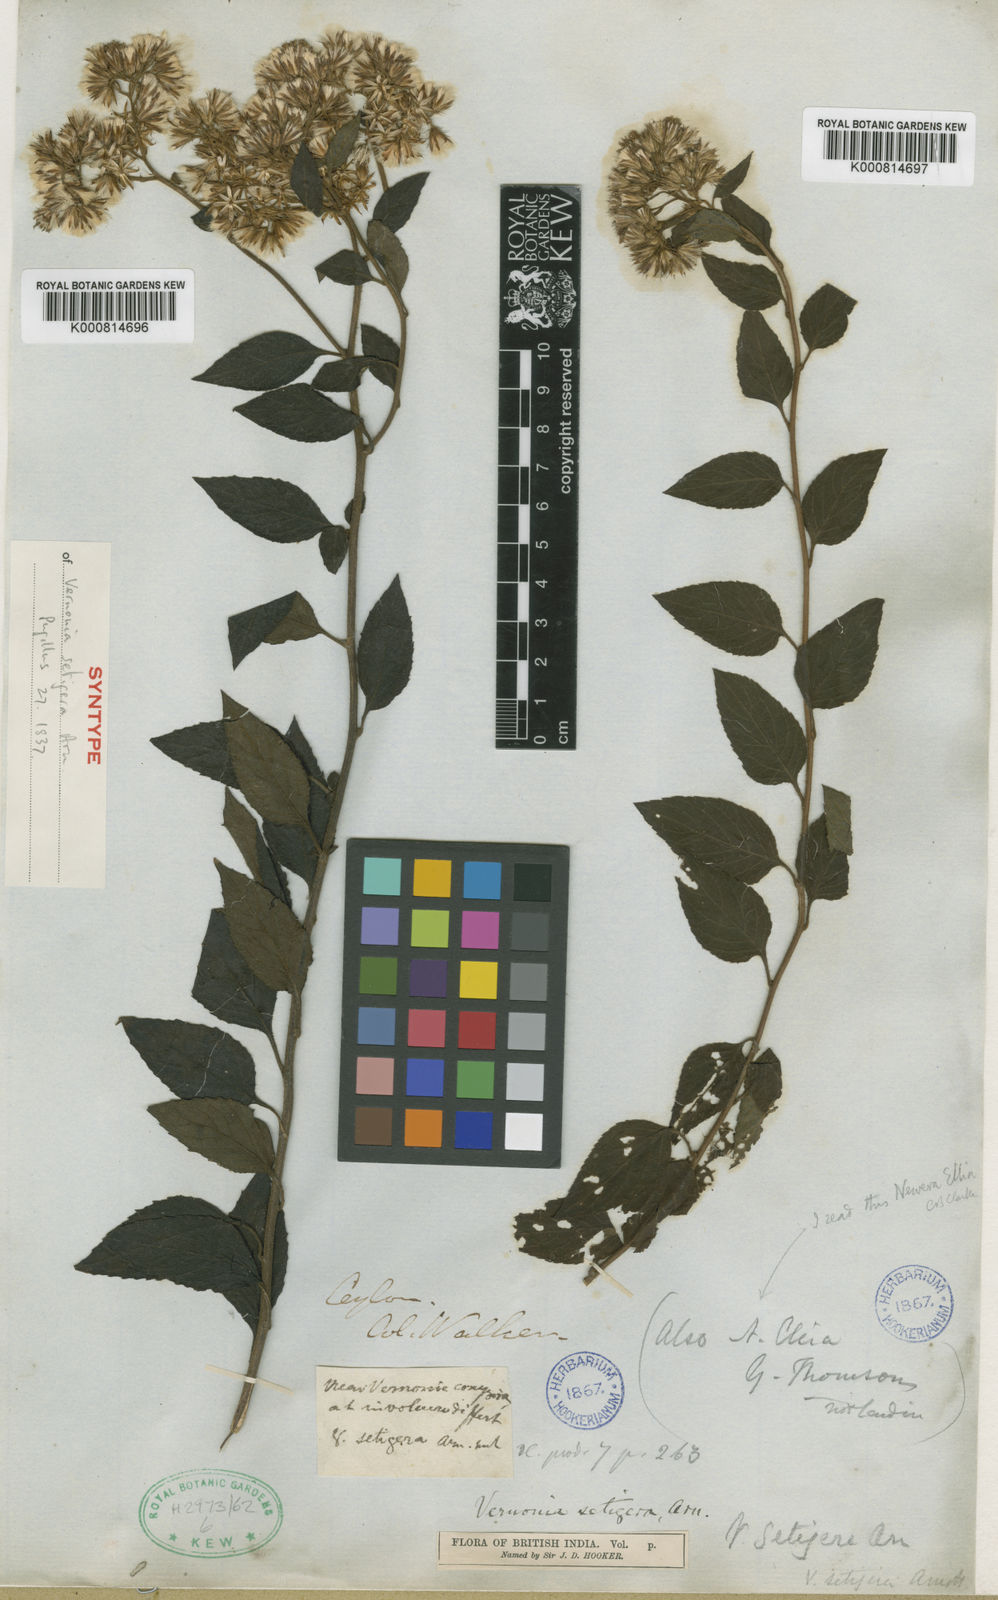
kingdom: Plantae
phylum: Tracheophyta
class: Magnoliopsida
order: Asterales
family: Asteraceae
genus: Vernonia
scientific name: Vernonia
